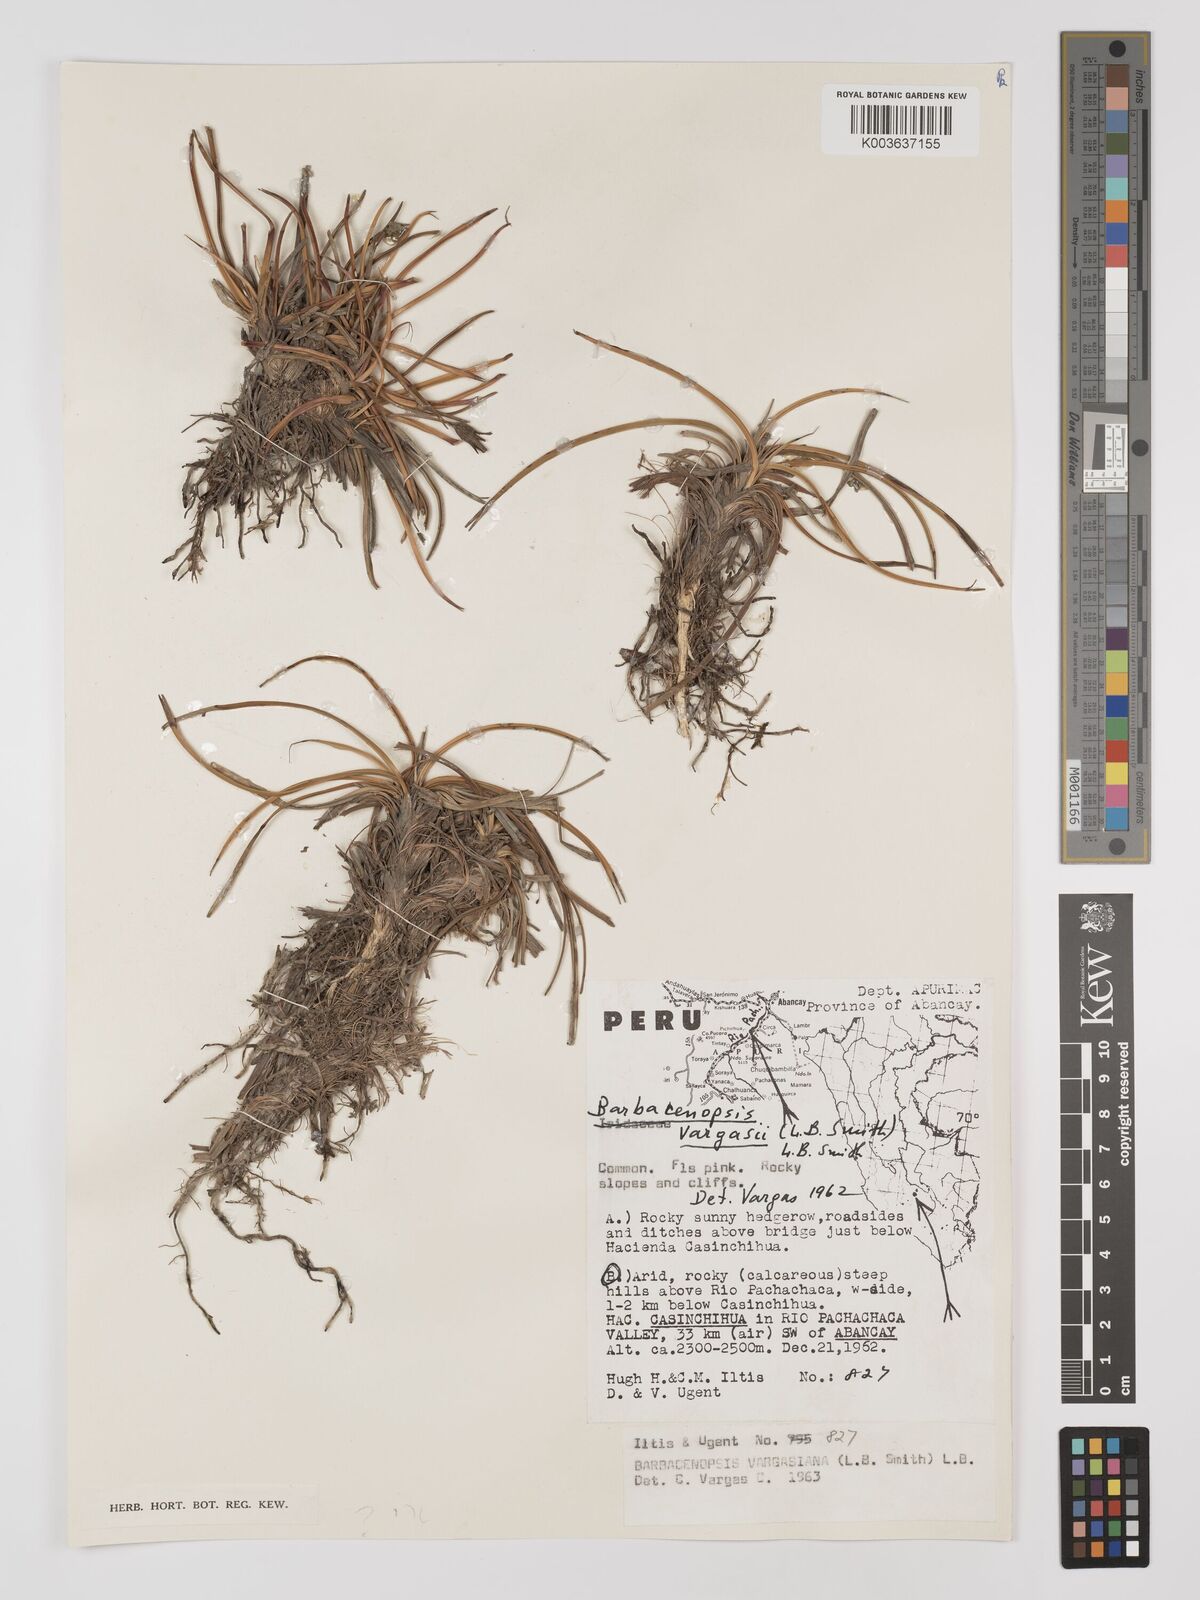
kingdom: Plantae
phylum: Tracheophyta
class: Liliopsida
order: Pandanales
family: Velloziaceae
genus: Barbaceniopsis
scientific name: Barbaceniopsis vargasiana
